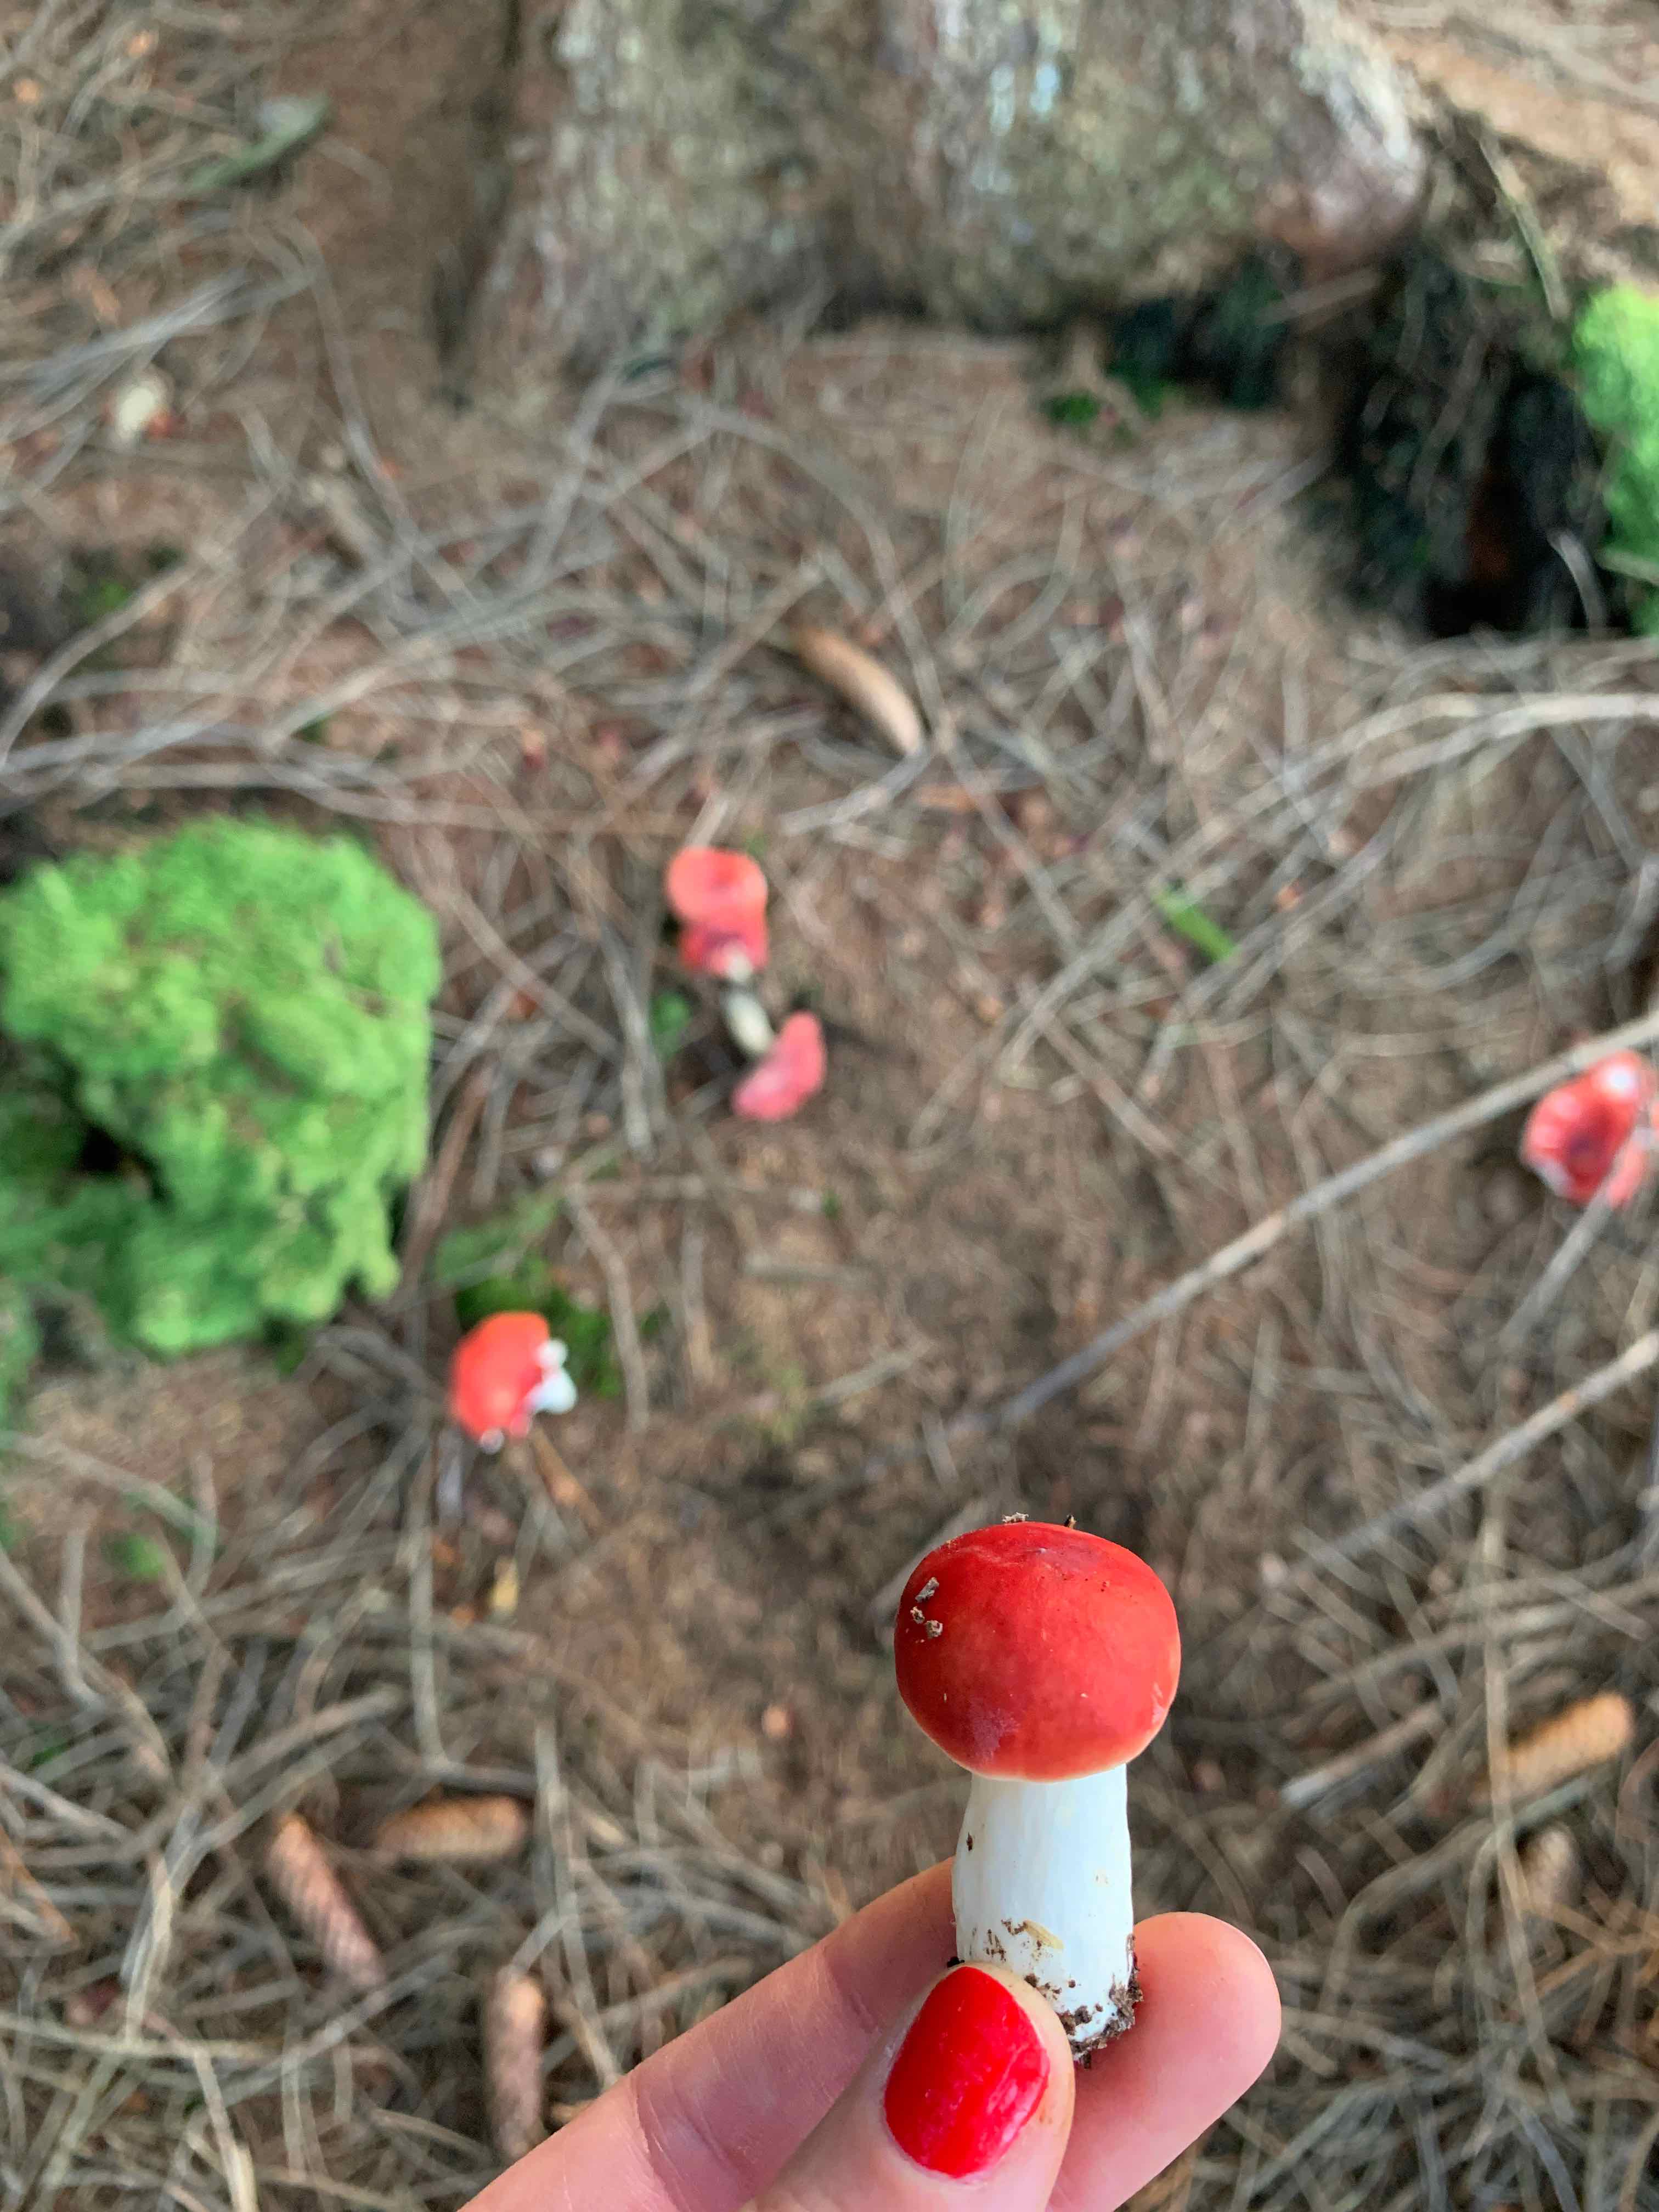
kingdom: Fungi
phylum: Basidiomycota
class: Agaricomycetes
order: Russulales
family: Russulaceae
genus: Russula
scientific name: Russula emetica
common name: stor gift-skørhat
